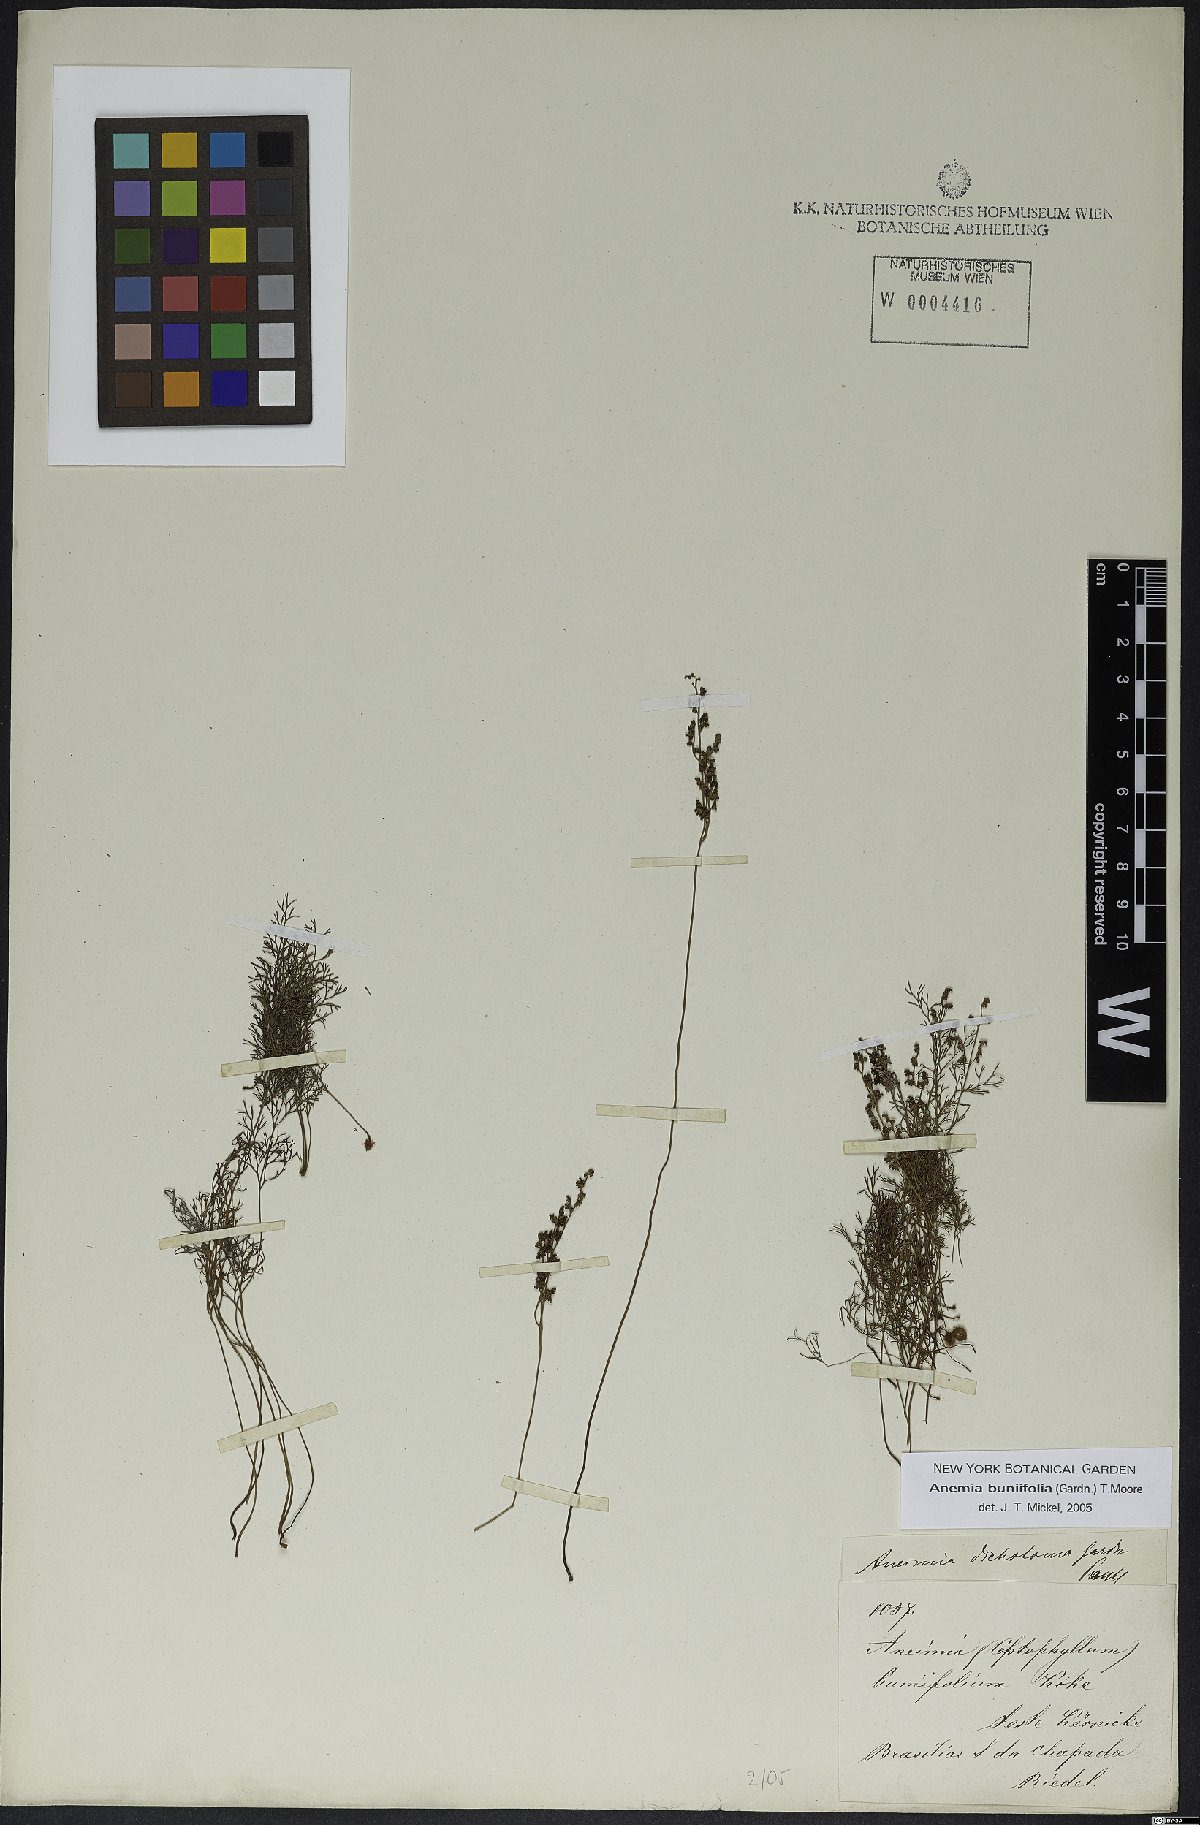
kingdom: Plantae
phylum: Tracheophyta
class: Polypodiopsida
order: Schizaeales
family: Anemiaceae
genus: Anemia
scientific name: Anemia buniifolia
